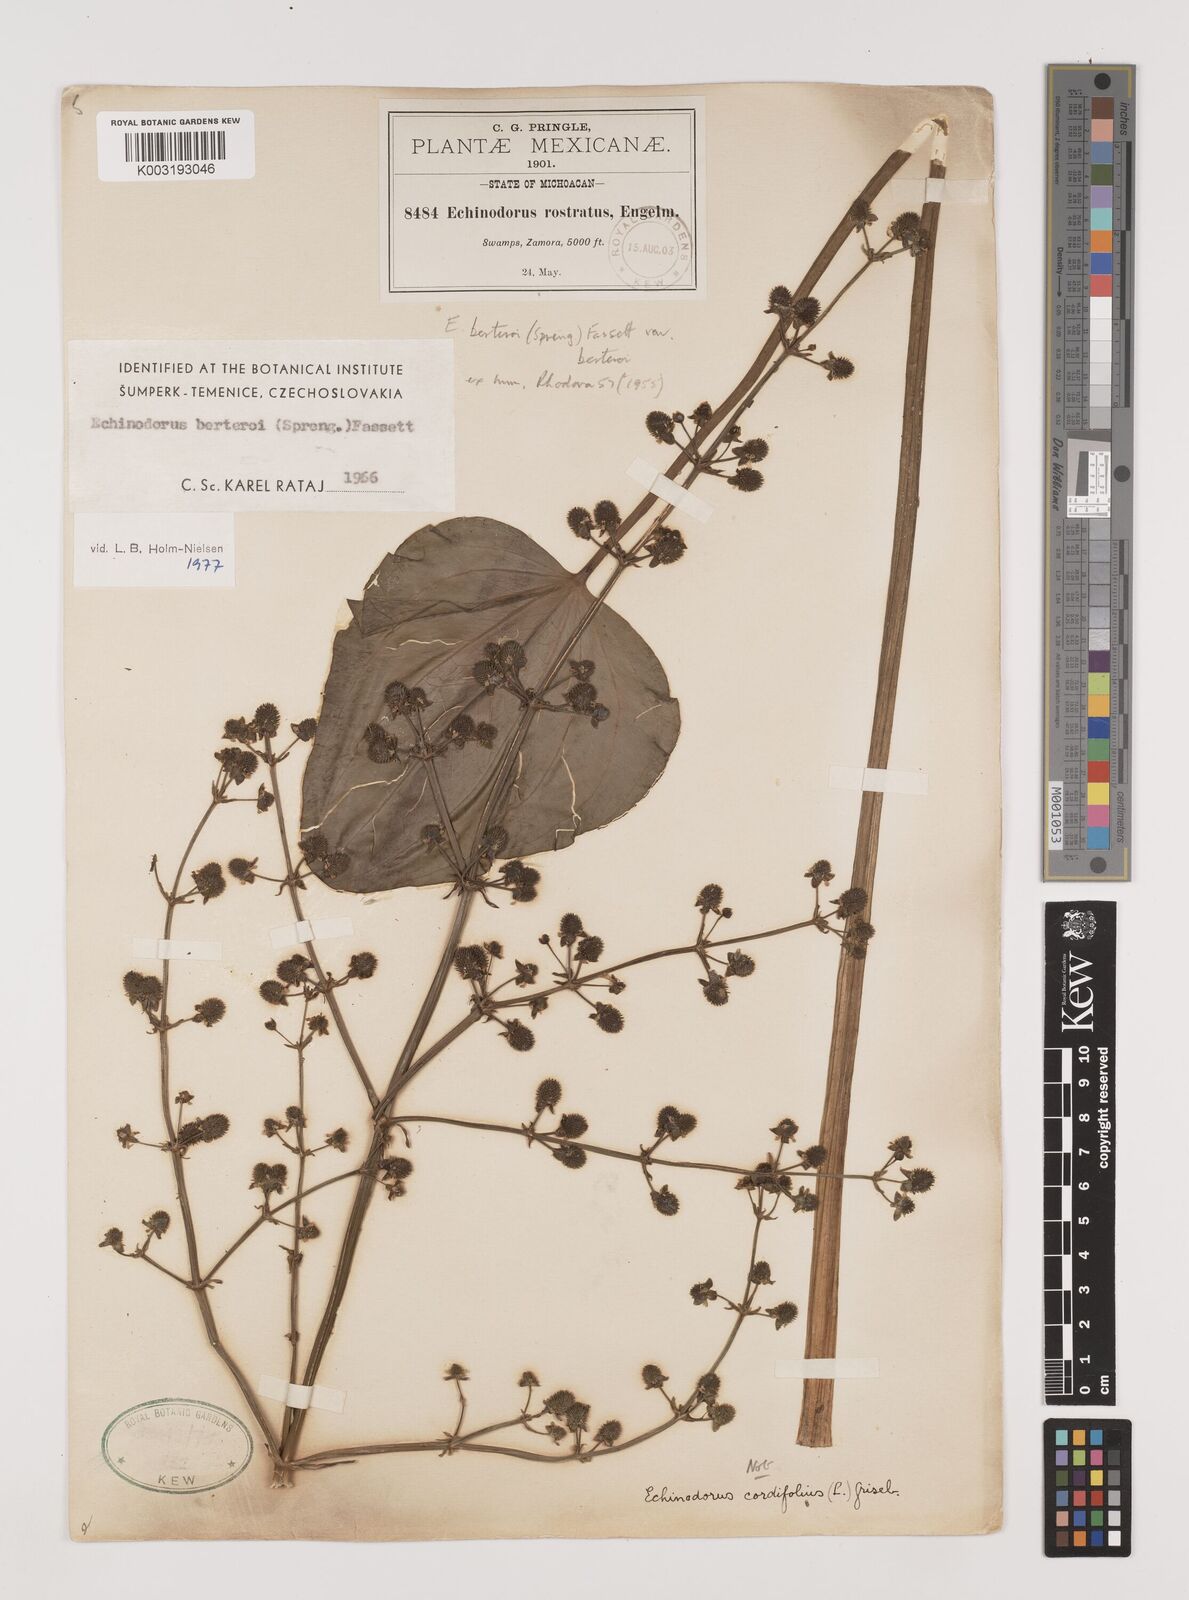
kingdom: Plantae
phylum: Tracheophyta
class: Liliopsida
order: Alismatales
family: Alismataceae
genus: Echinodorus
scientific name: Echinodorus berteroi
